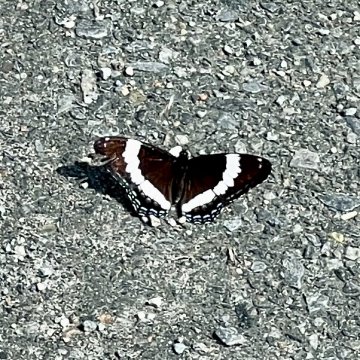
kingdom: Animalia
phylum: Arthropoda
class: Insecta
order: Lepidoptera
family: Nymphalidae
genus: Limenitis
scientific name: Limenitis arthemis
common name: Red-spotted Admiral
